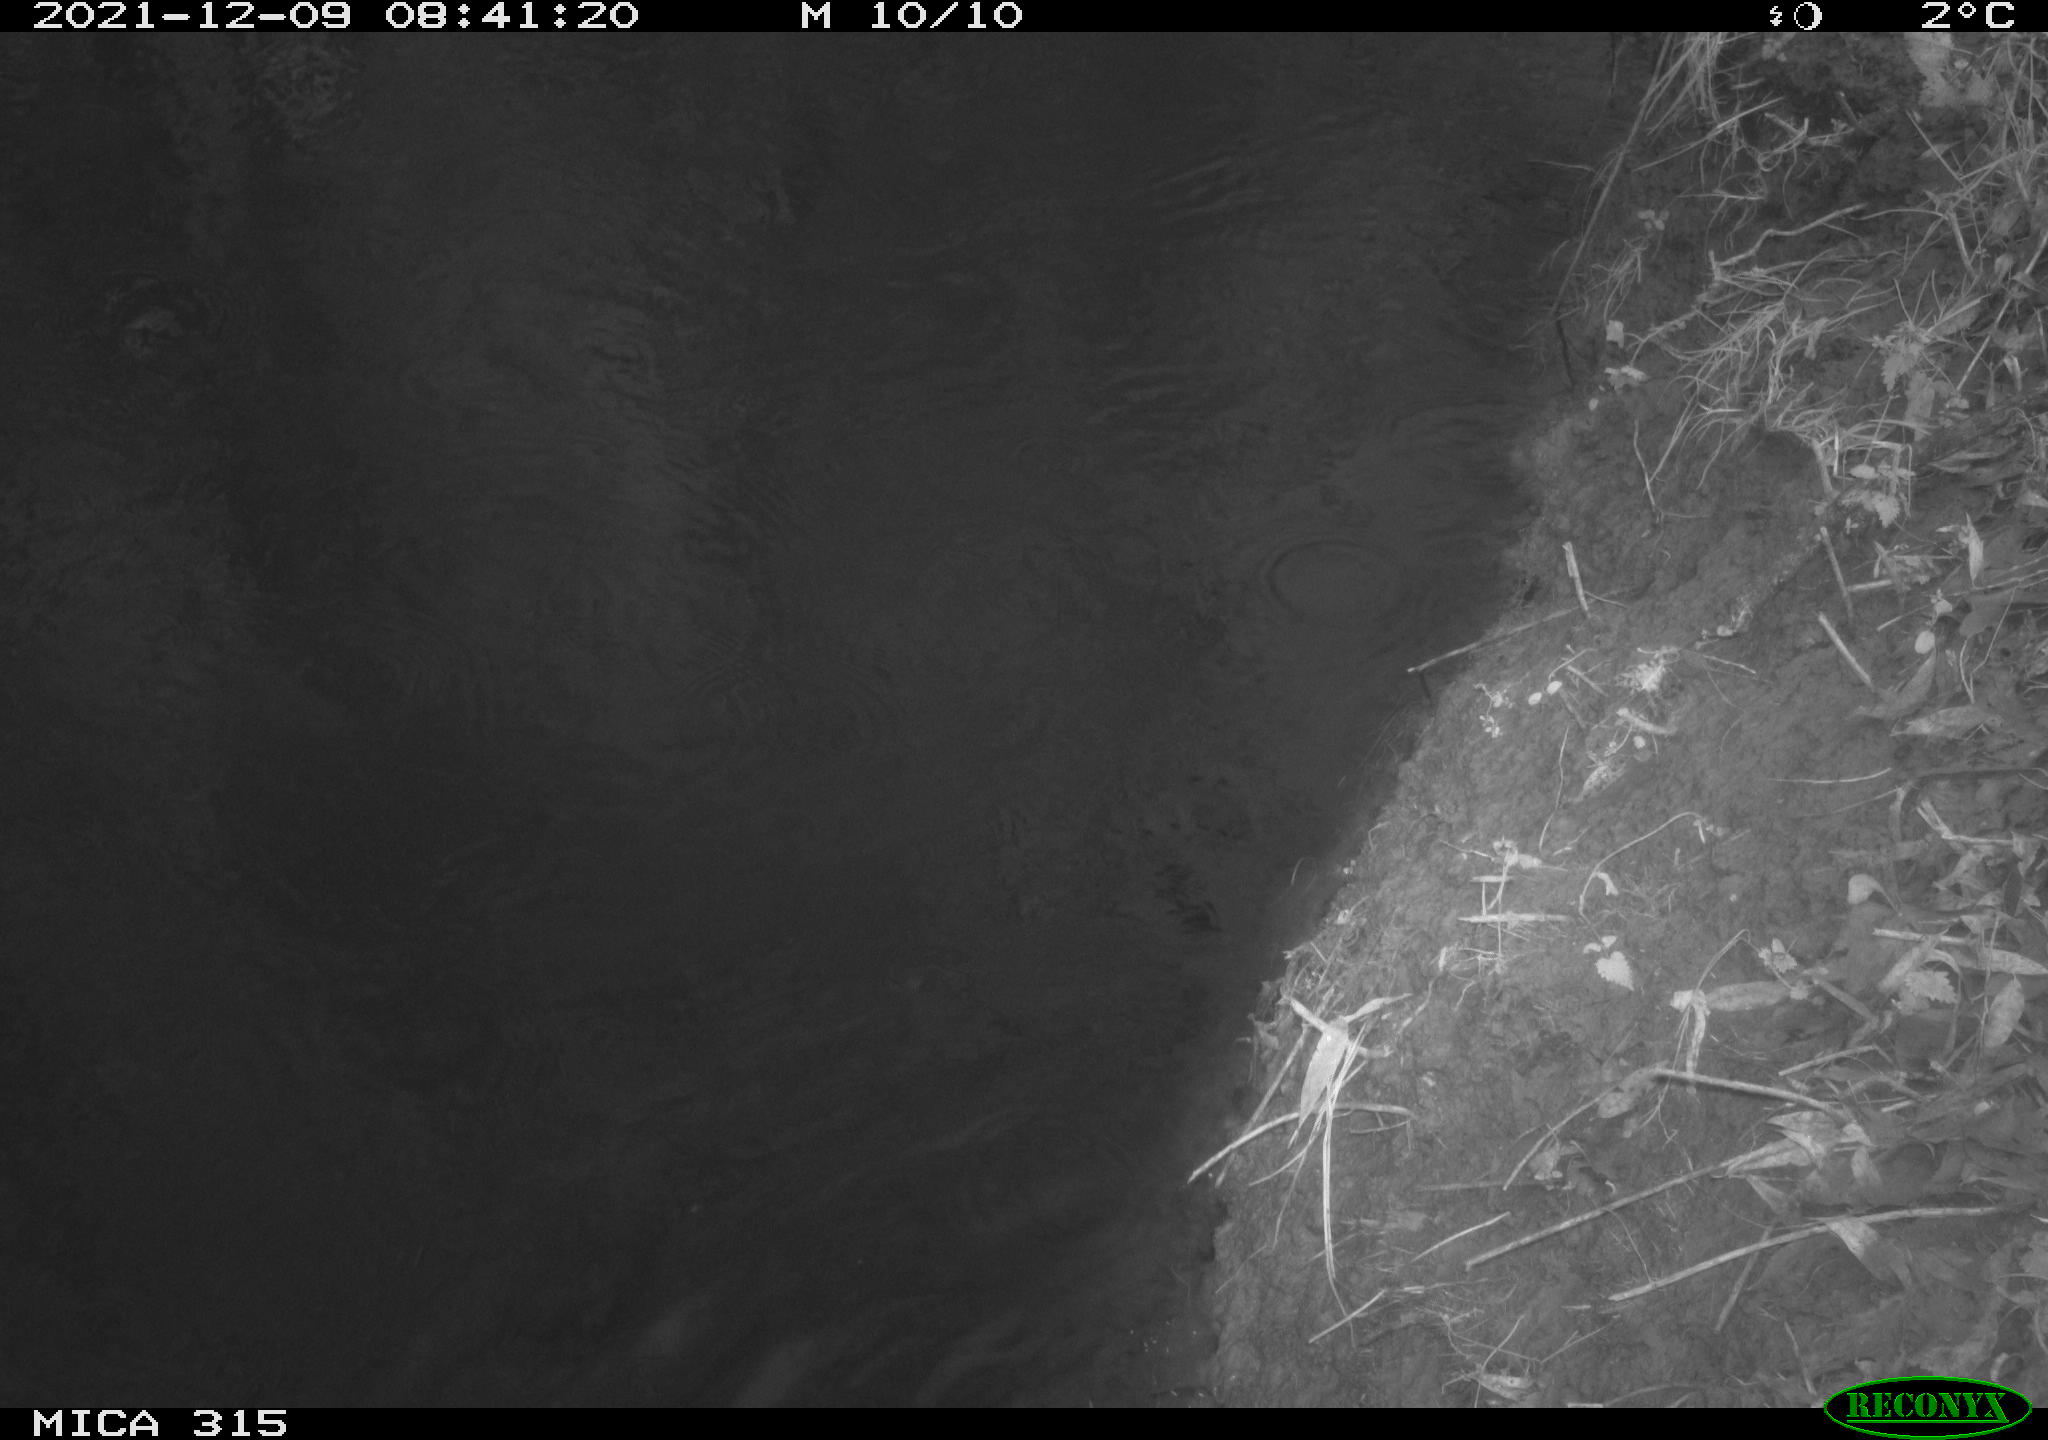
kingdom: Animalia
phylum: Chordata
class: Aves
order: Gruiformes
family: Rallidae
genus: Gallinula
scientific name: Gallinula chloropus
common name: Common moorhen
